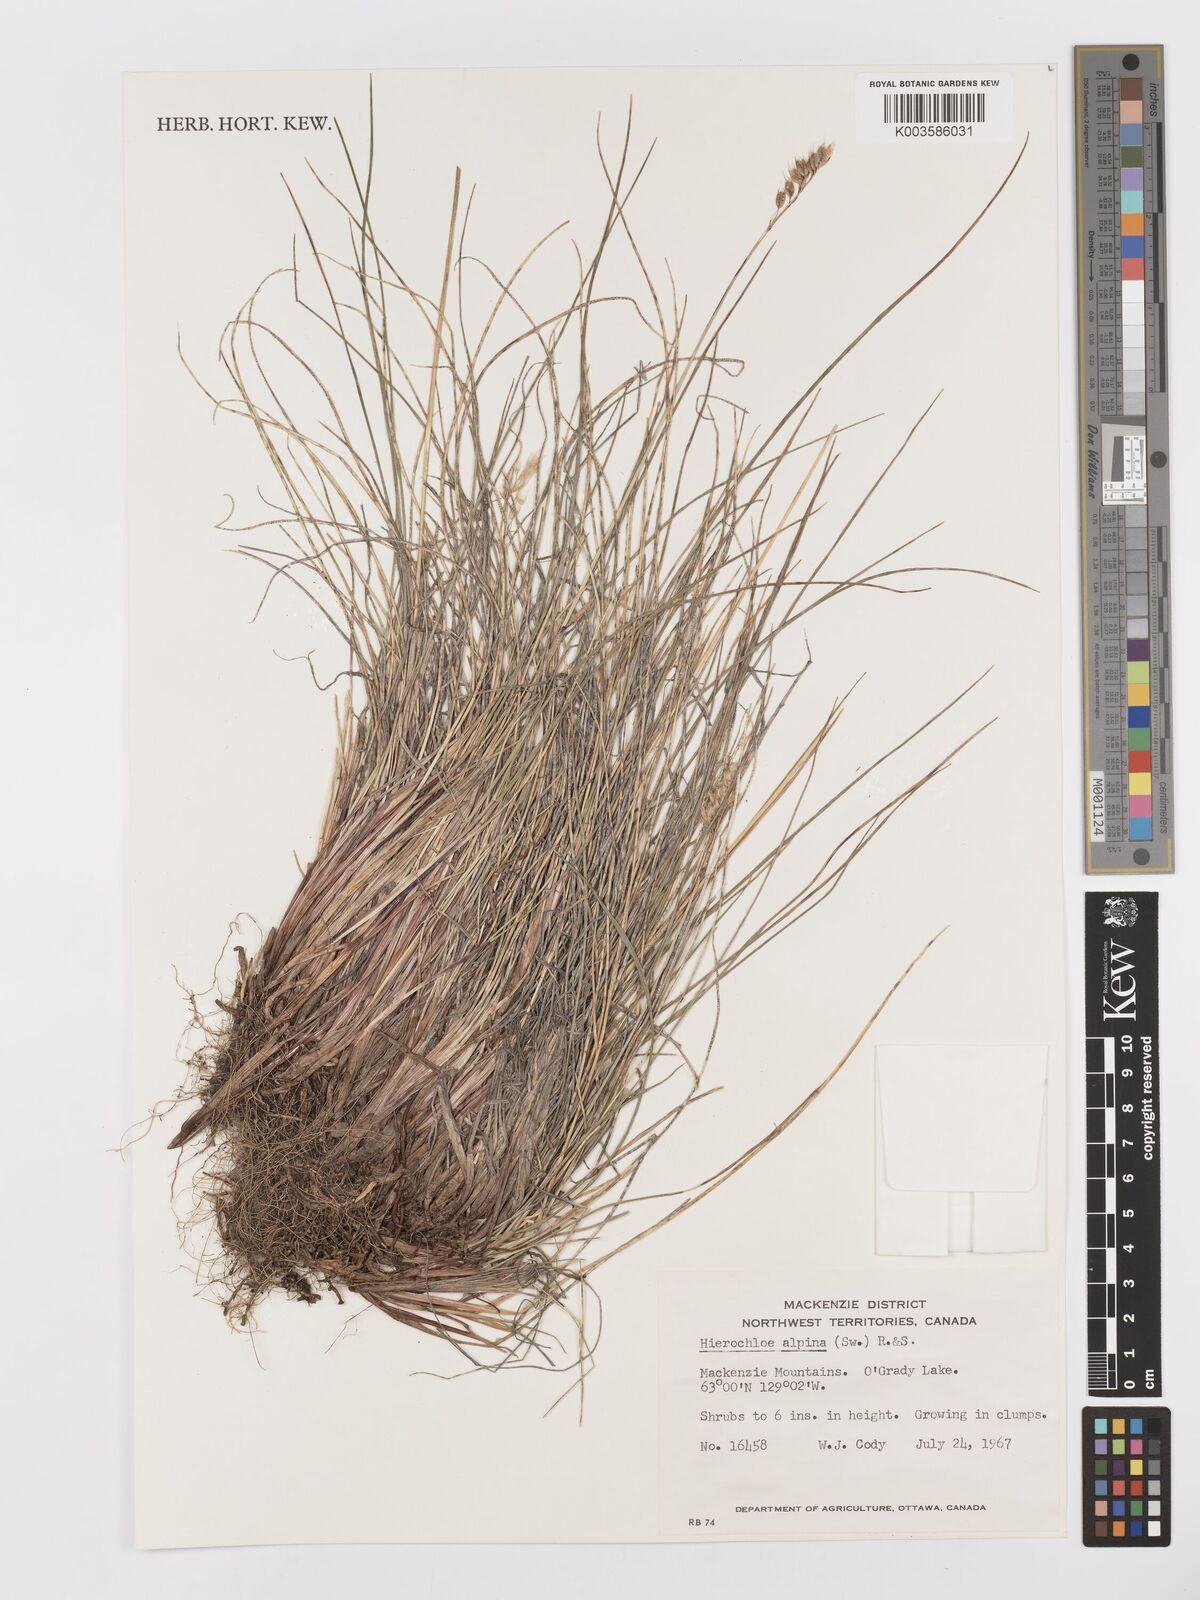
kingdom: Plantae
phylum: Tracheophyta
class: Liliopsida
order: Poales
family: Poaceae
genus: Anthoxanthum
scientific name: Anthoxanthum monticola
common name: Alpine sweetgrass
